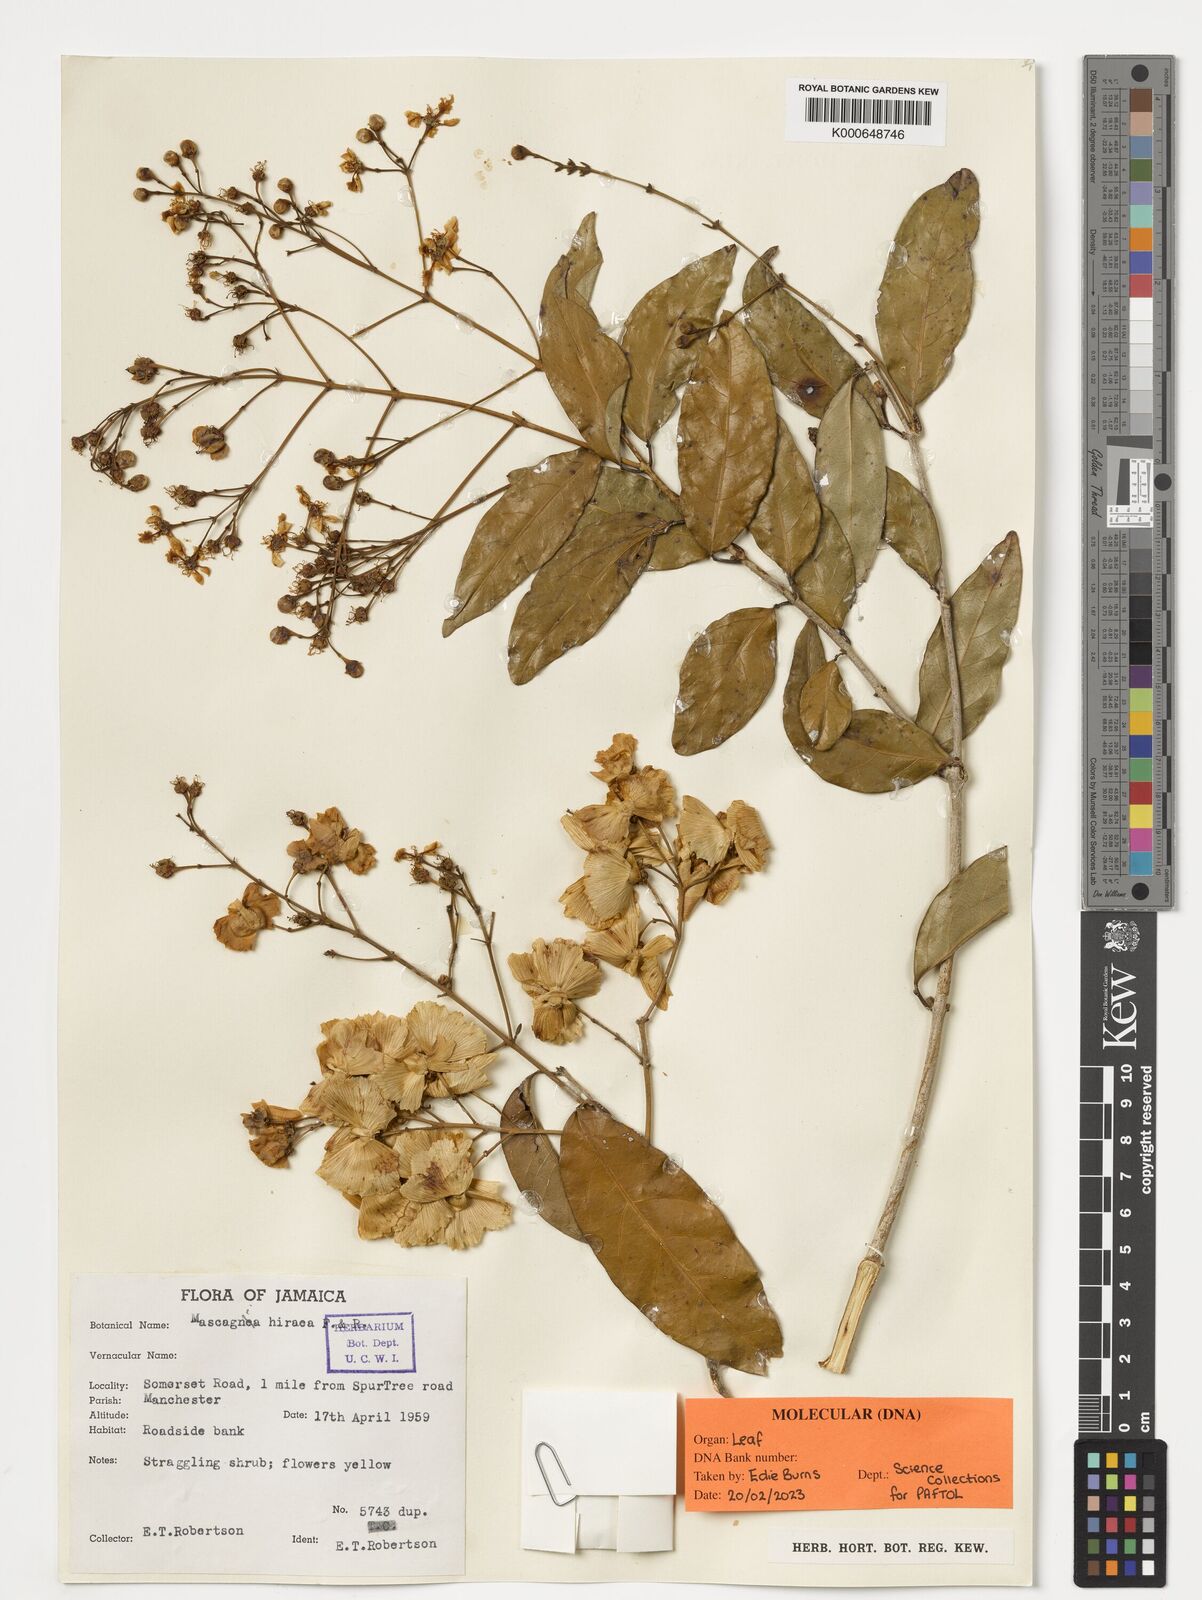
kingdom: Plantae
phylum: Tracheophyta
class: Magnoliopsida
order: Malpighiales
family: Malpighiaceae
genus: Adelphia
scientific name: Adelphia hiraea
